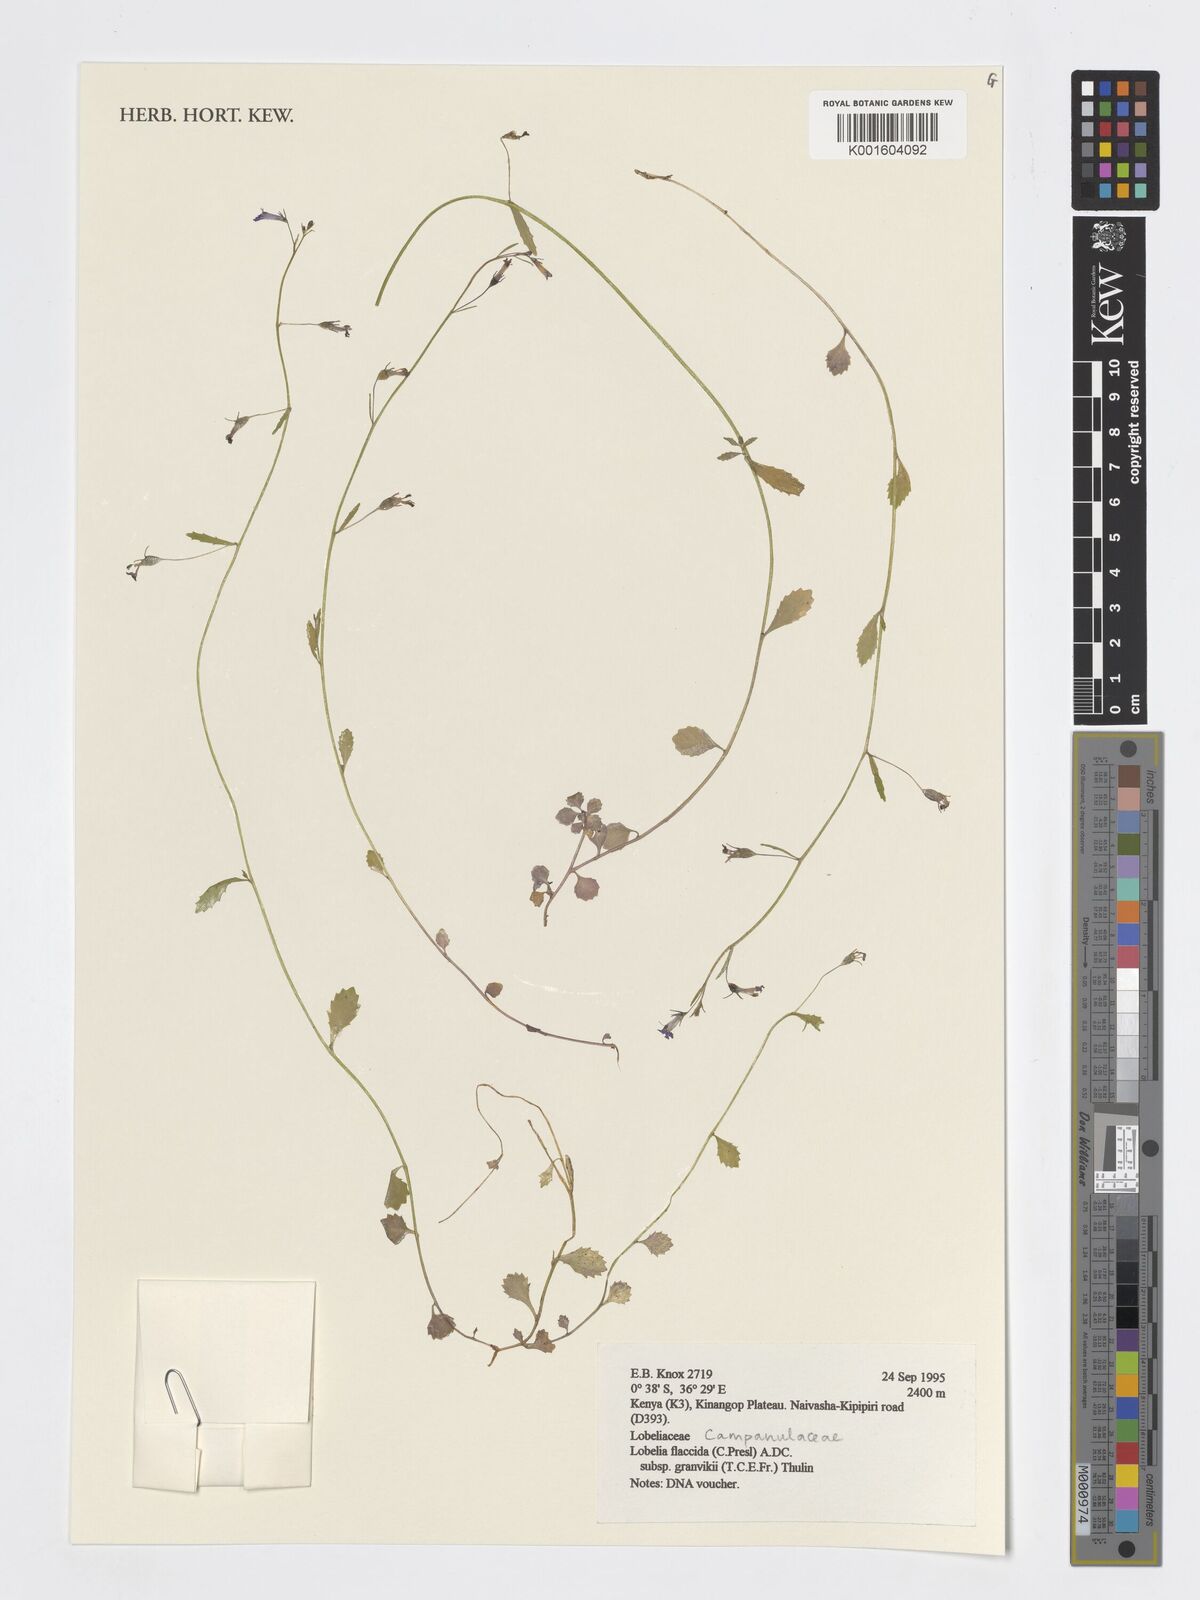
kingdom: Plantae
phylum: Tracheophyta
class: Magnoliopsida
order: Asterales
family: Campanulaceae
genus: Lobelia
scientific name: Lobelia flaccida
